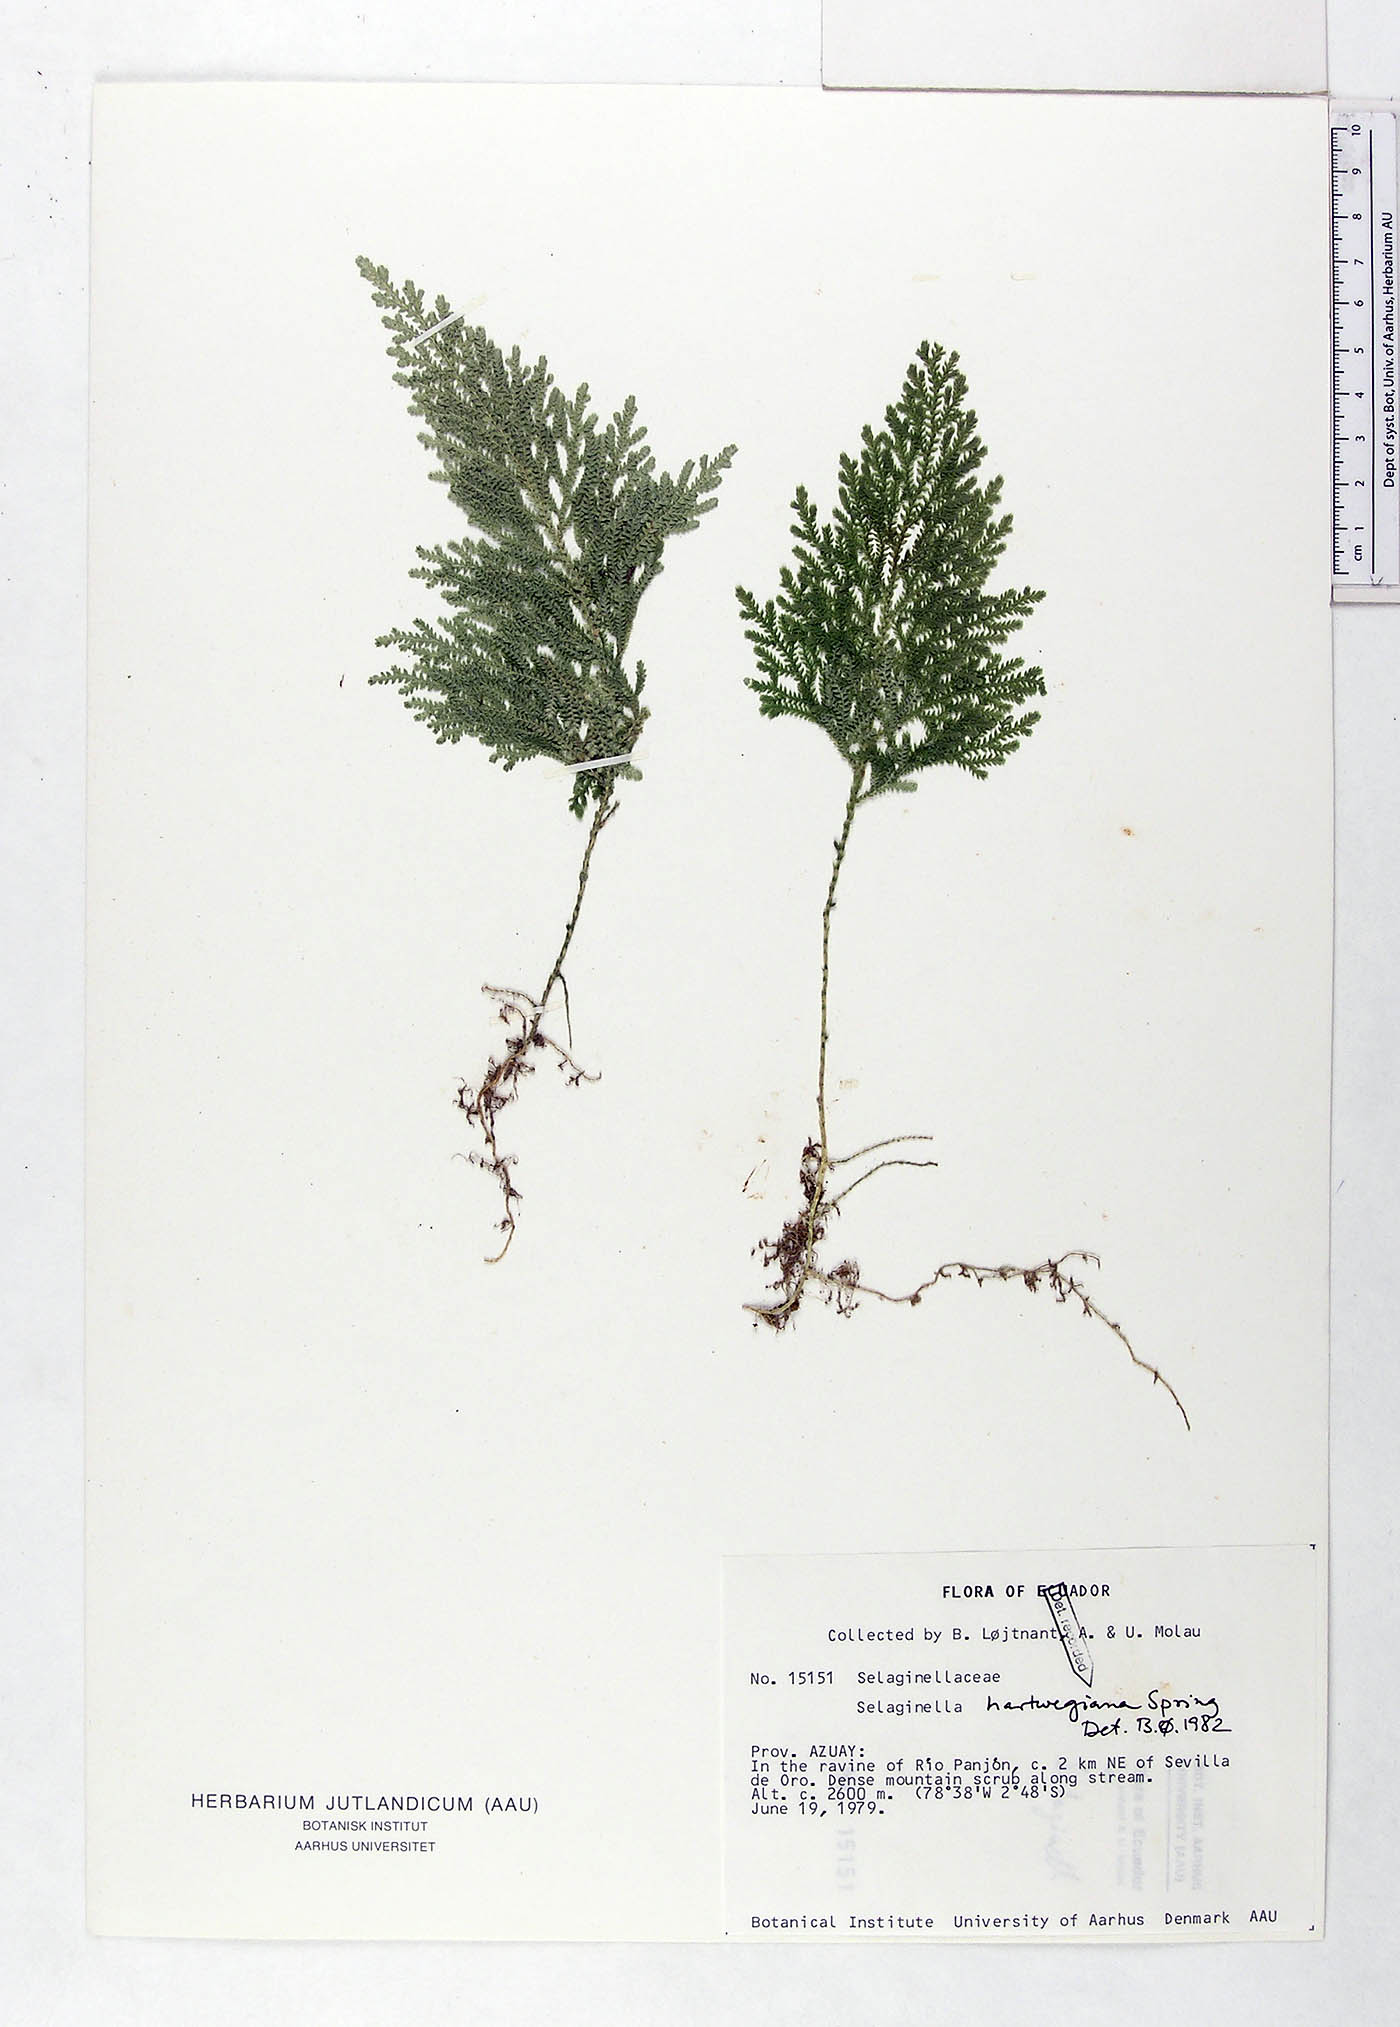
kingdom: Plantae
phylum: Tracheophyta
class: Lycopodiopsida
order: Selaginellales
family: Selaginellaceae
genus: Selaginella
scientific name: Selaginella hartwegiana
